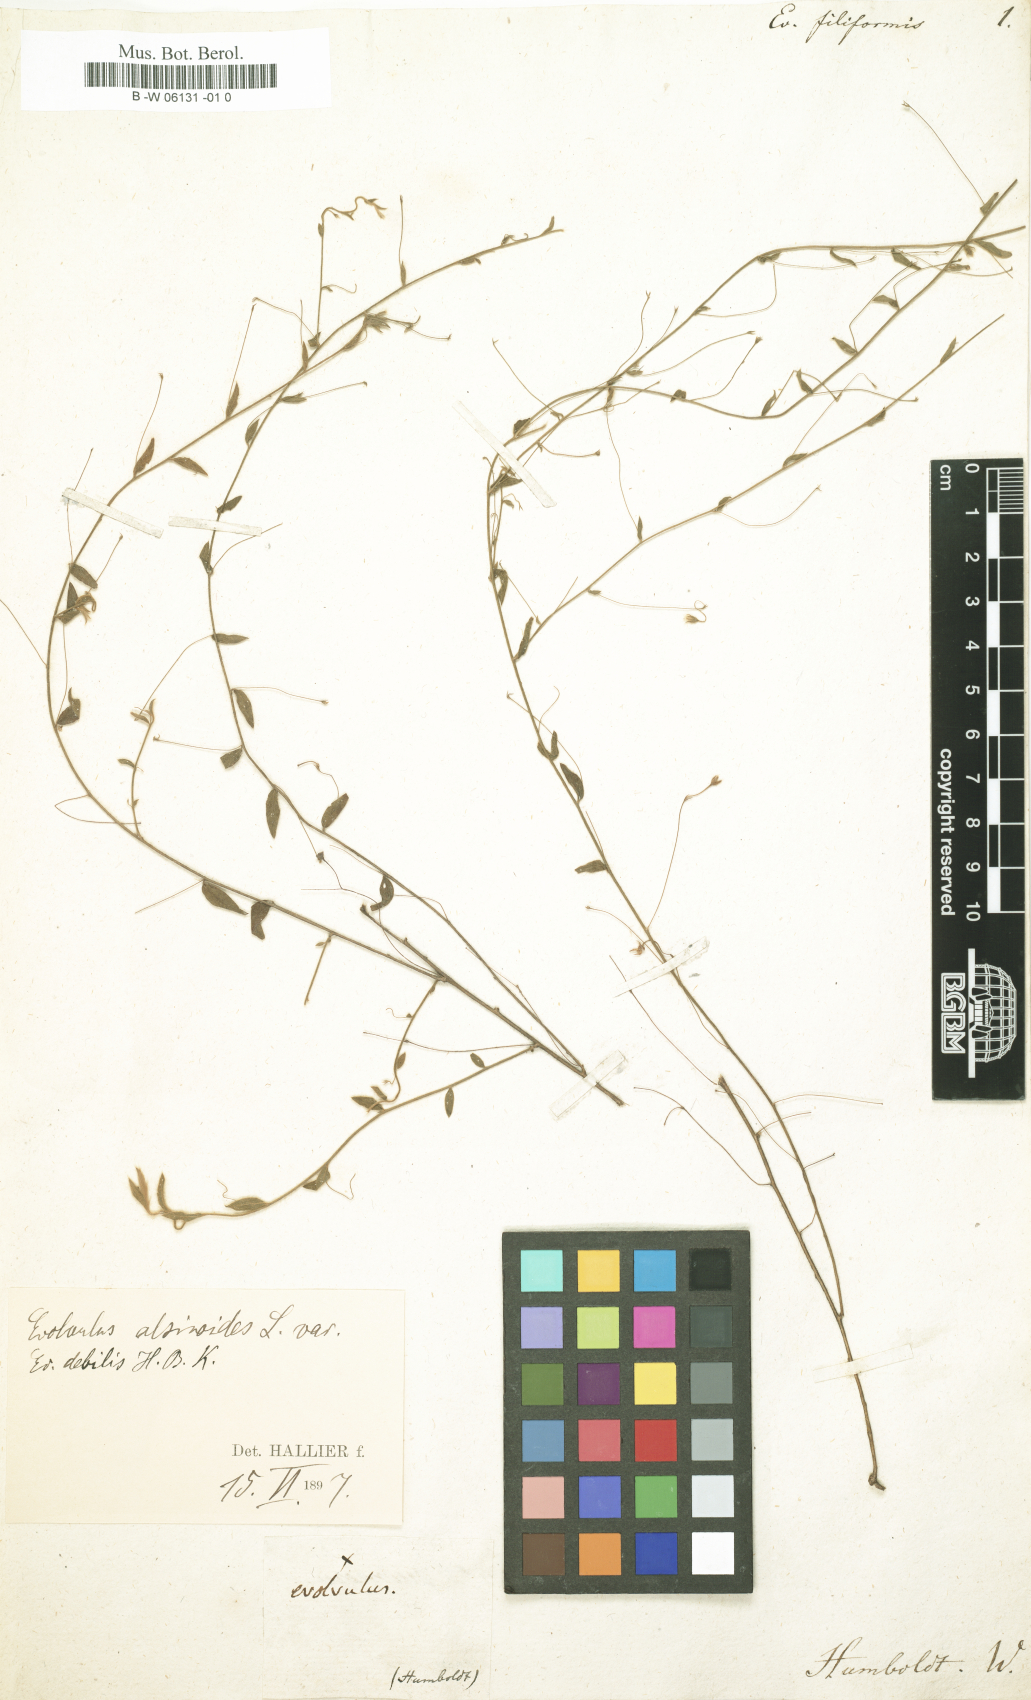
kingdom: Plantae
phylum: Tracheophyta
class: Magnoliopsida
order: Solanales
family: Convolvulaceae
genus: Evolvulus
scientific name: Evolvulus alsinoides
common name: Slender dwarf morning-glory
